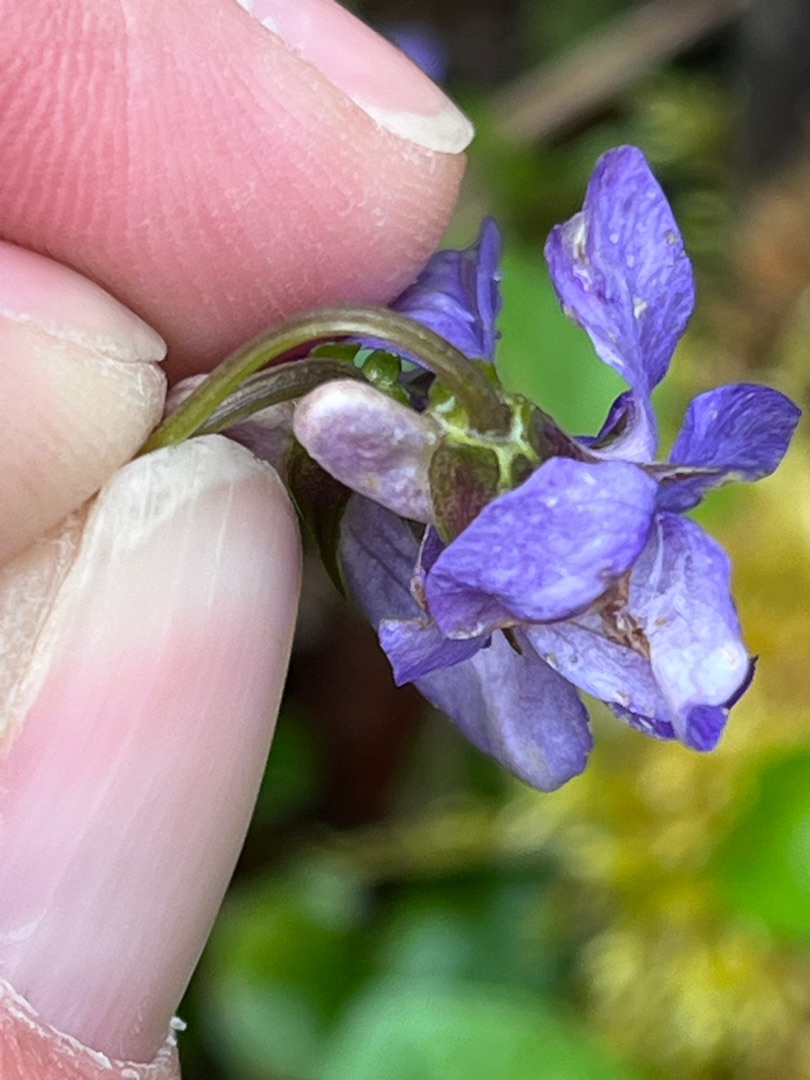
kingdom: Plantae
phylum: Tracheophyta
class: Magnoliopsida
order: Malpighiales
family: Violaceae
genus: Viola
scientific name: Viola reichenbachiana
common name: Skov-viol
